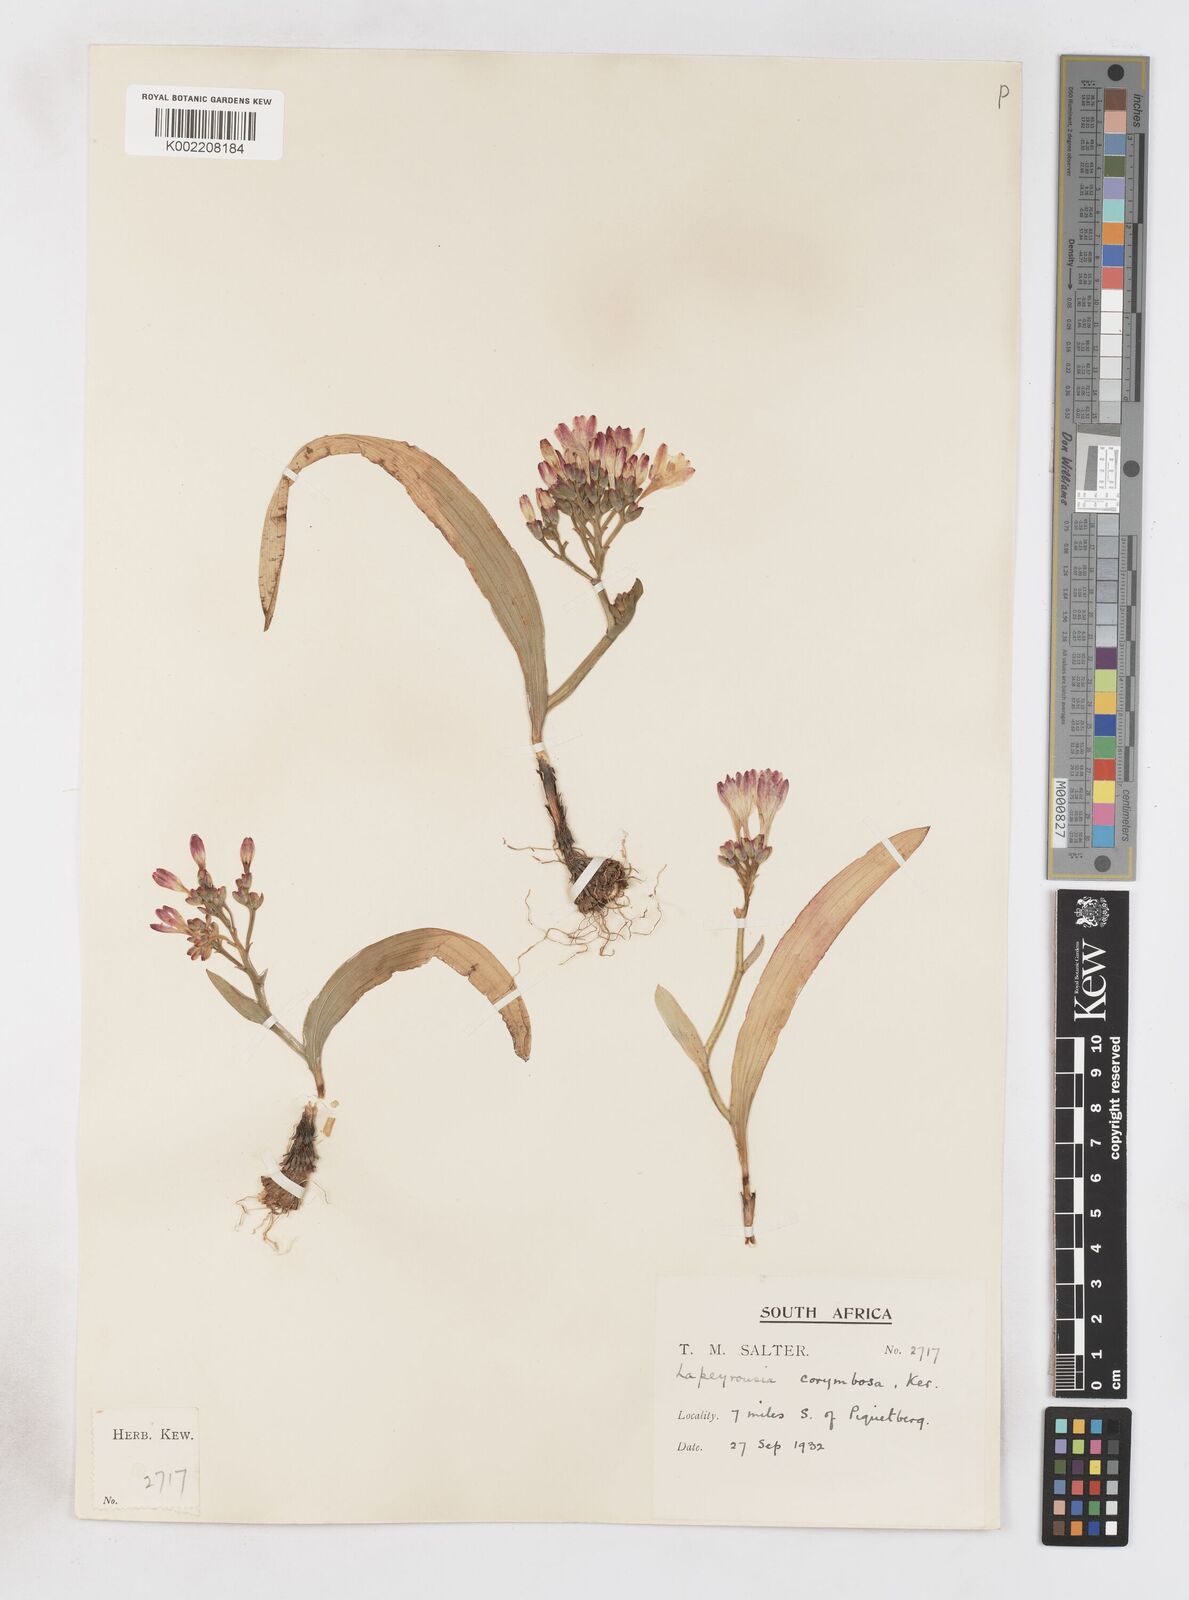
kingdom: Plantae
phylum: Tracheophyta
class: Liliopsida
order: Asparagales
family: Iridaceae
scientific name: Iridaceae
